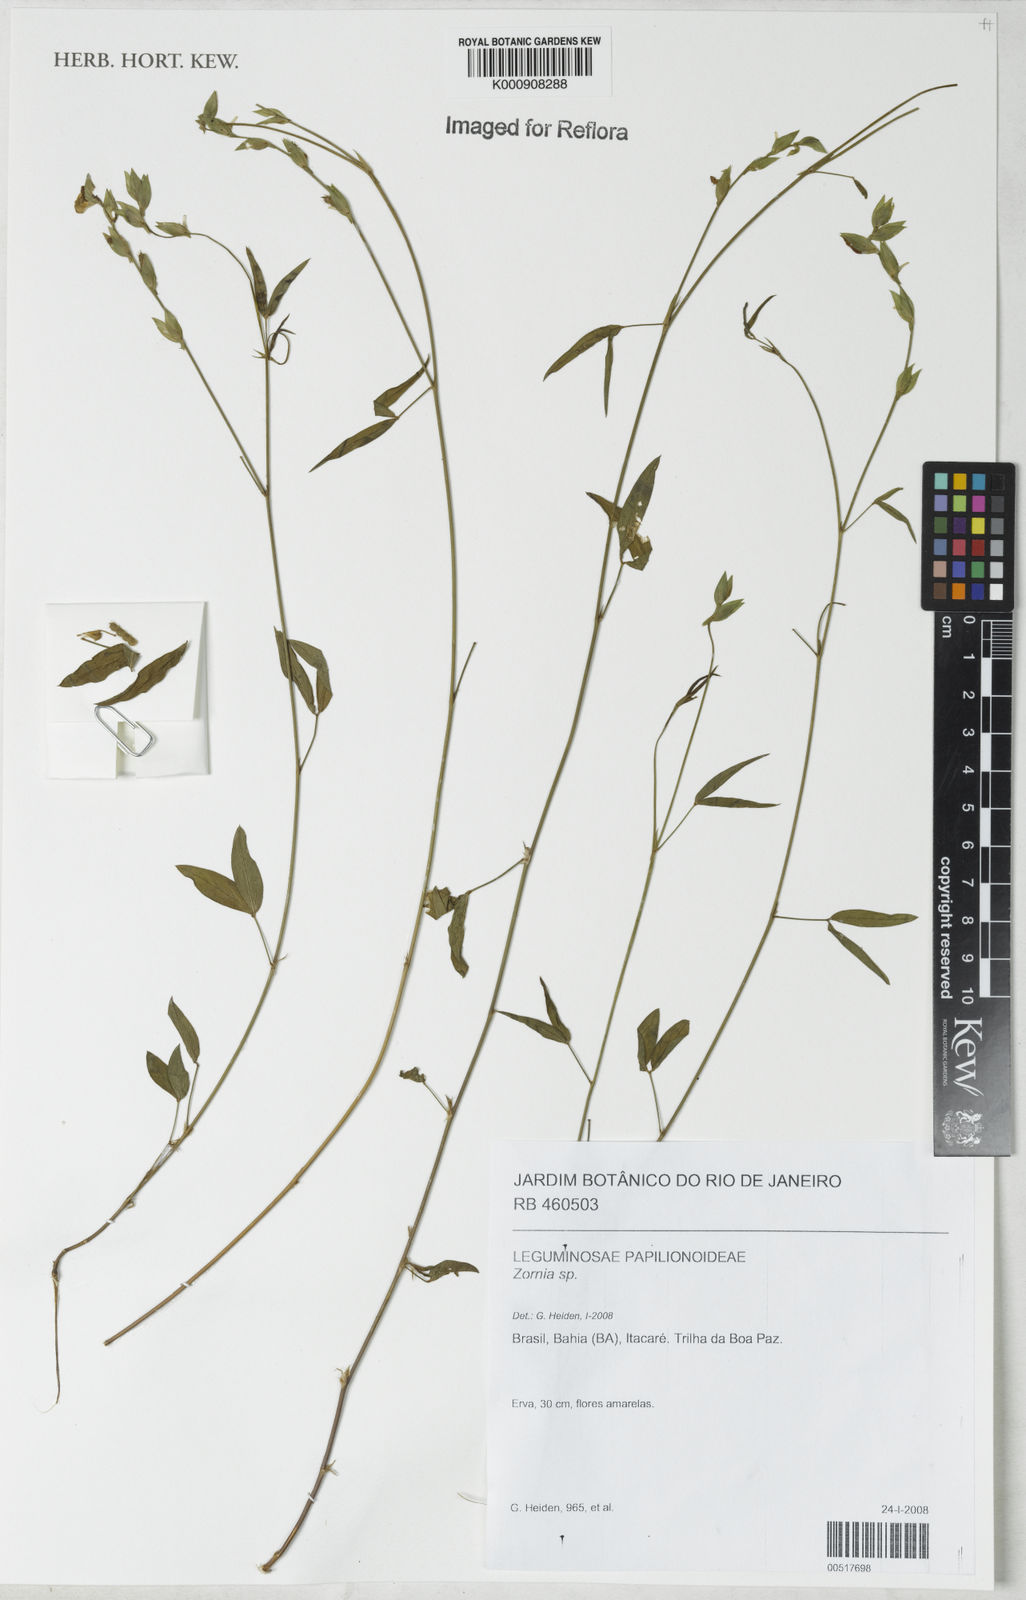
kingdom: Plantae
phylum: Tracheophyta
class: Magnoliopsida
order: Fabales
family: Fabaceae
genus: Zornia
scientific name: Zornia
